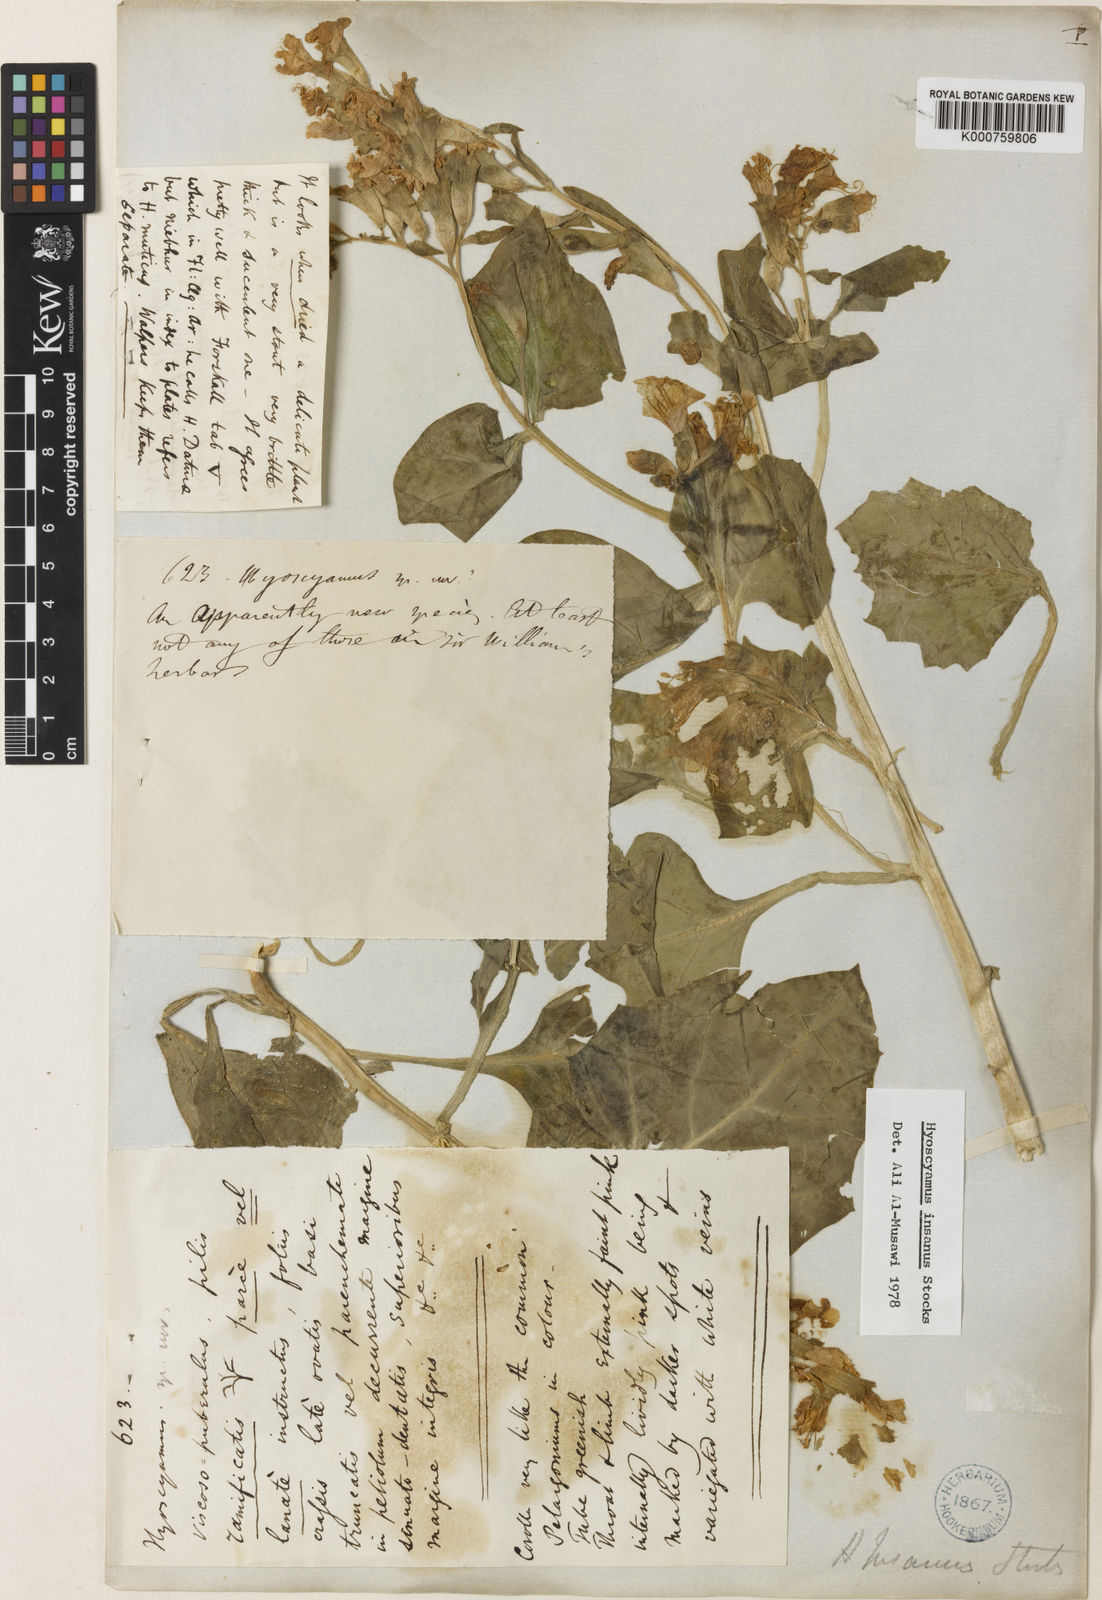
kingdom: Plantae
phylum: Tracheophyta
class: Magnoliopsida
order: Solanales
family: Solanaceae
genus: Hyoscyamus
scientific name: Hyoscyamus insanus
